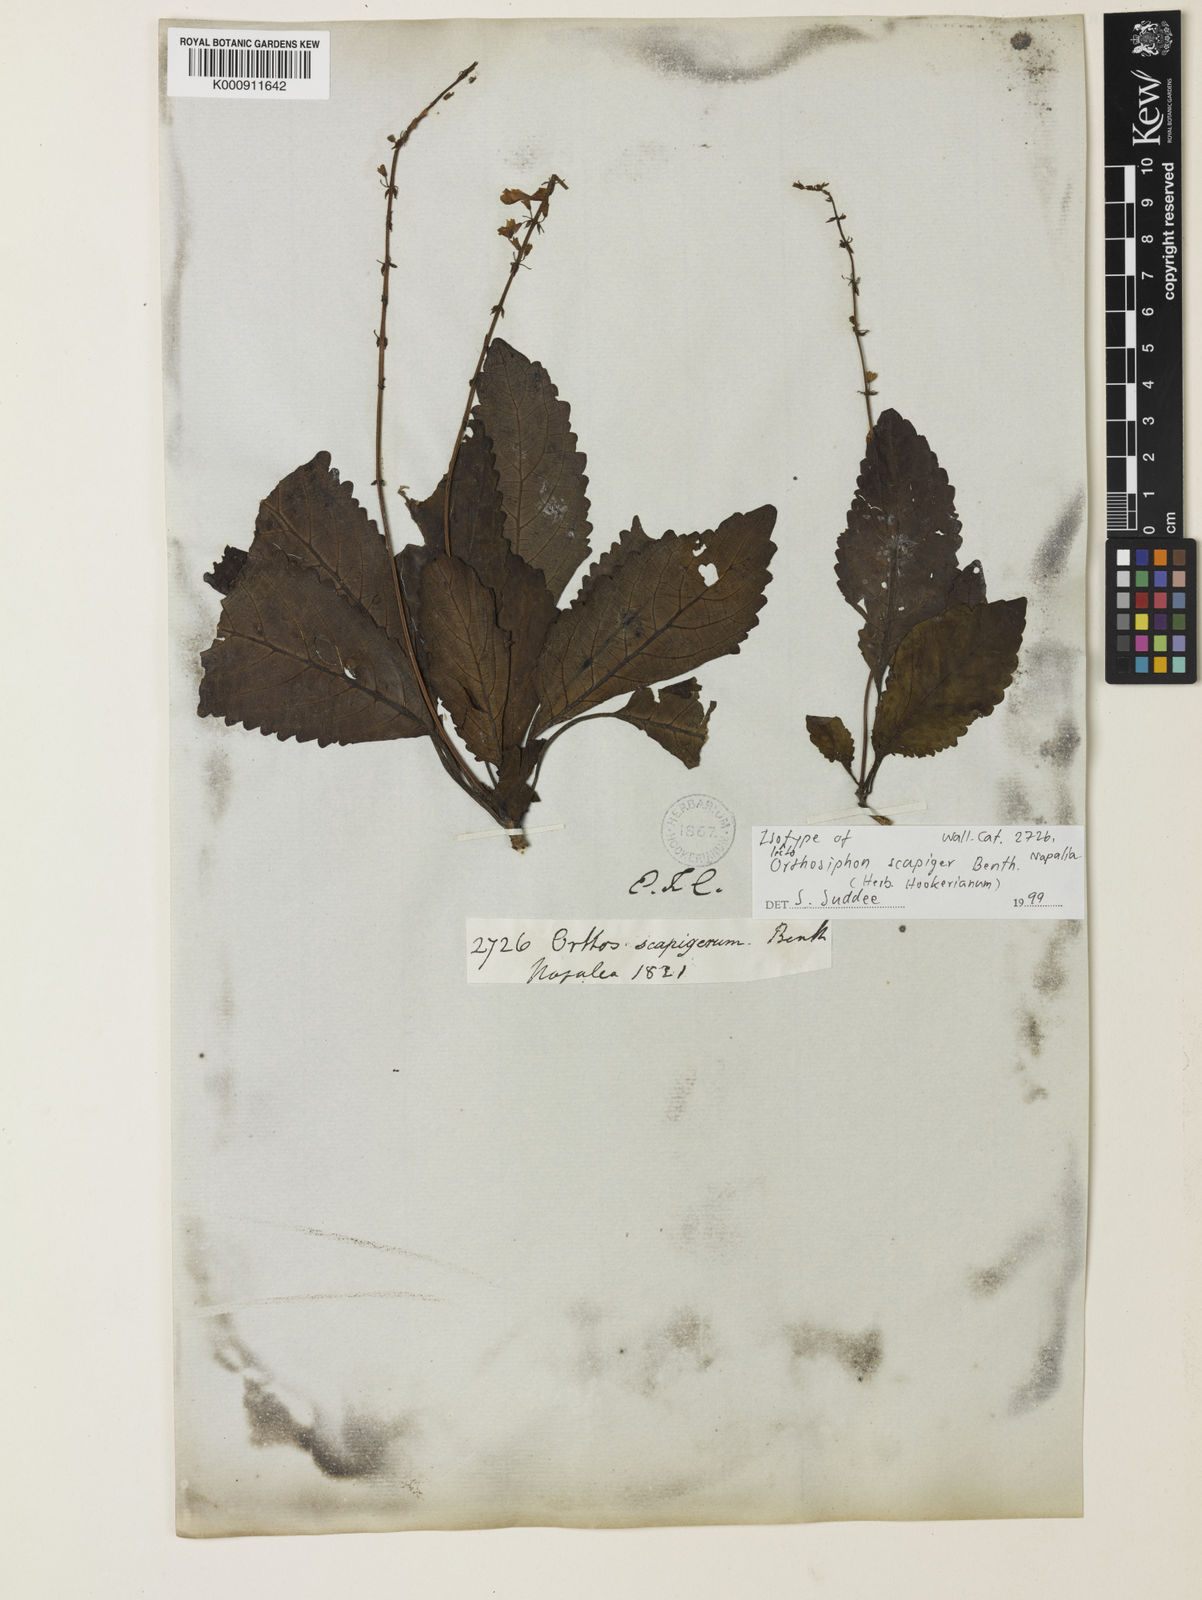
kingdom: Plantae
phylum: Tracheophyta
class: Magnoliopsida
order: Lamiales
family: Lamiaceae
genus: Orthosiphon
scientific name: Orthosiphon scapiger
